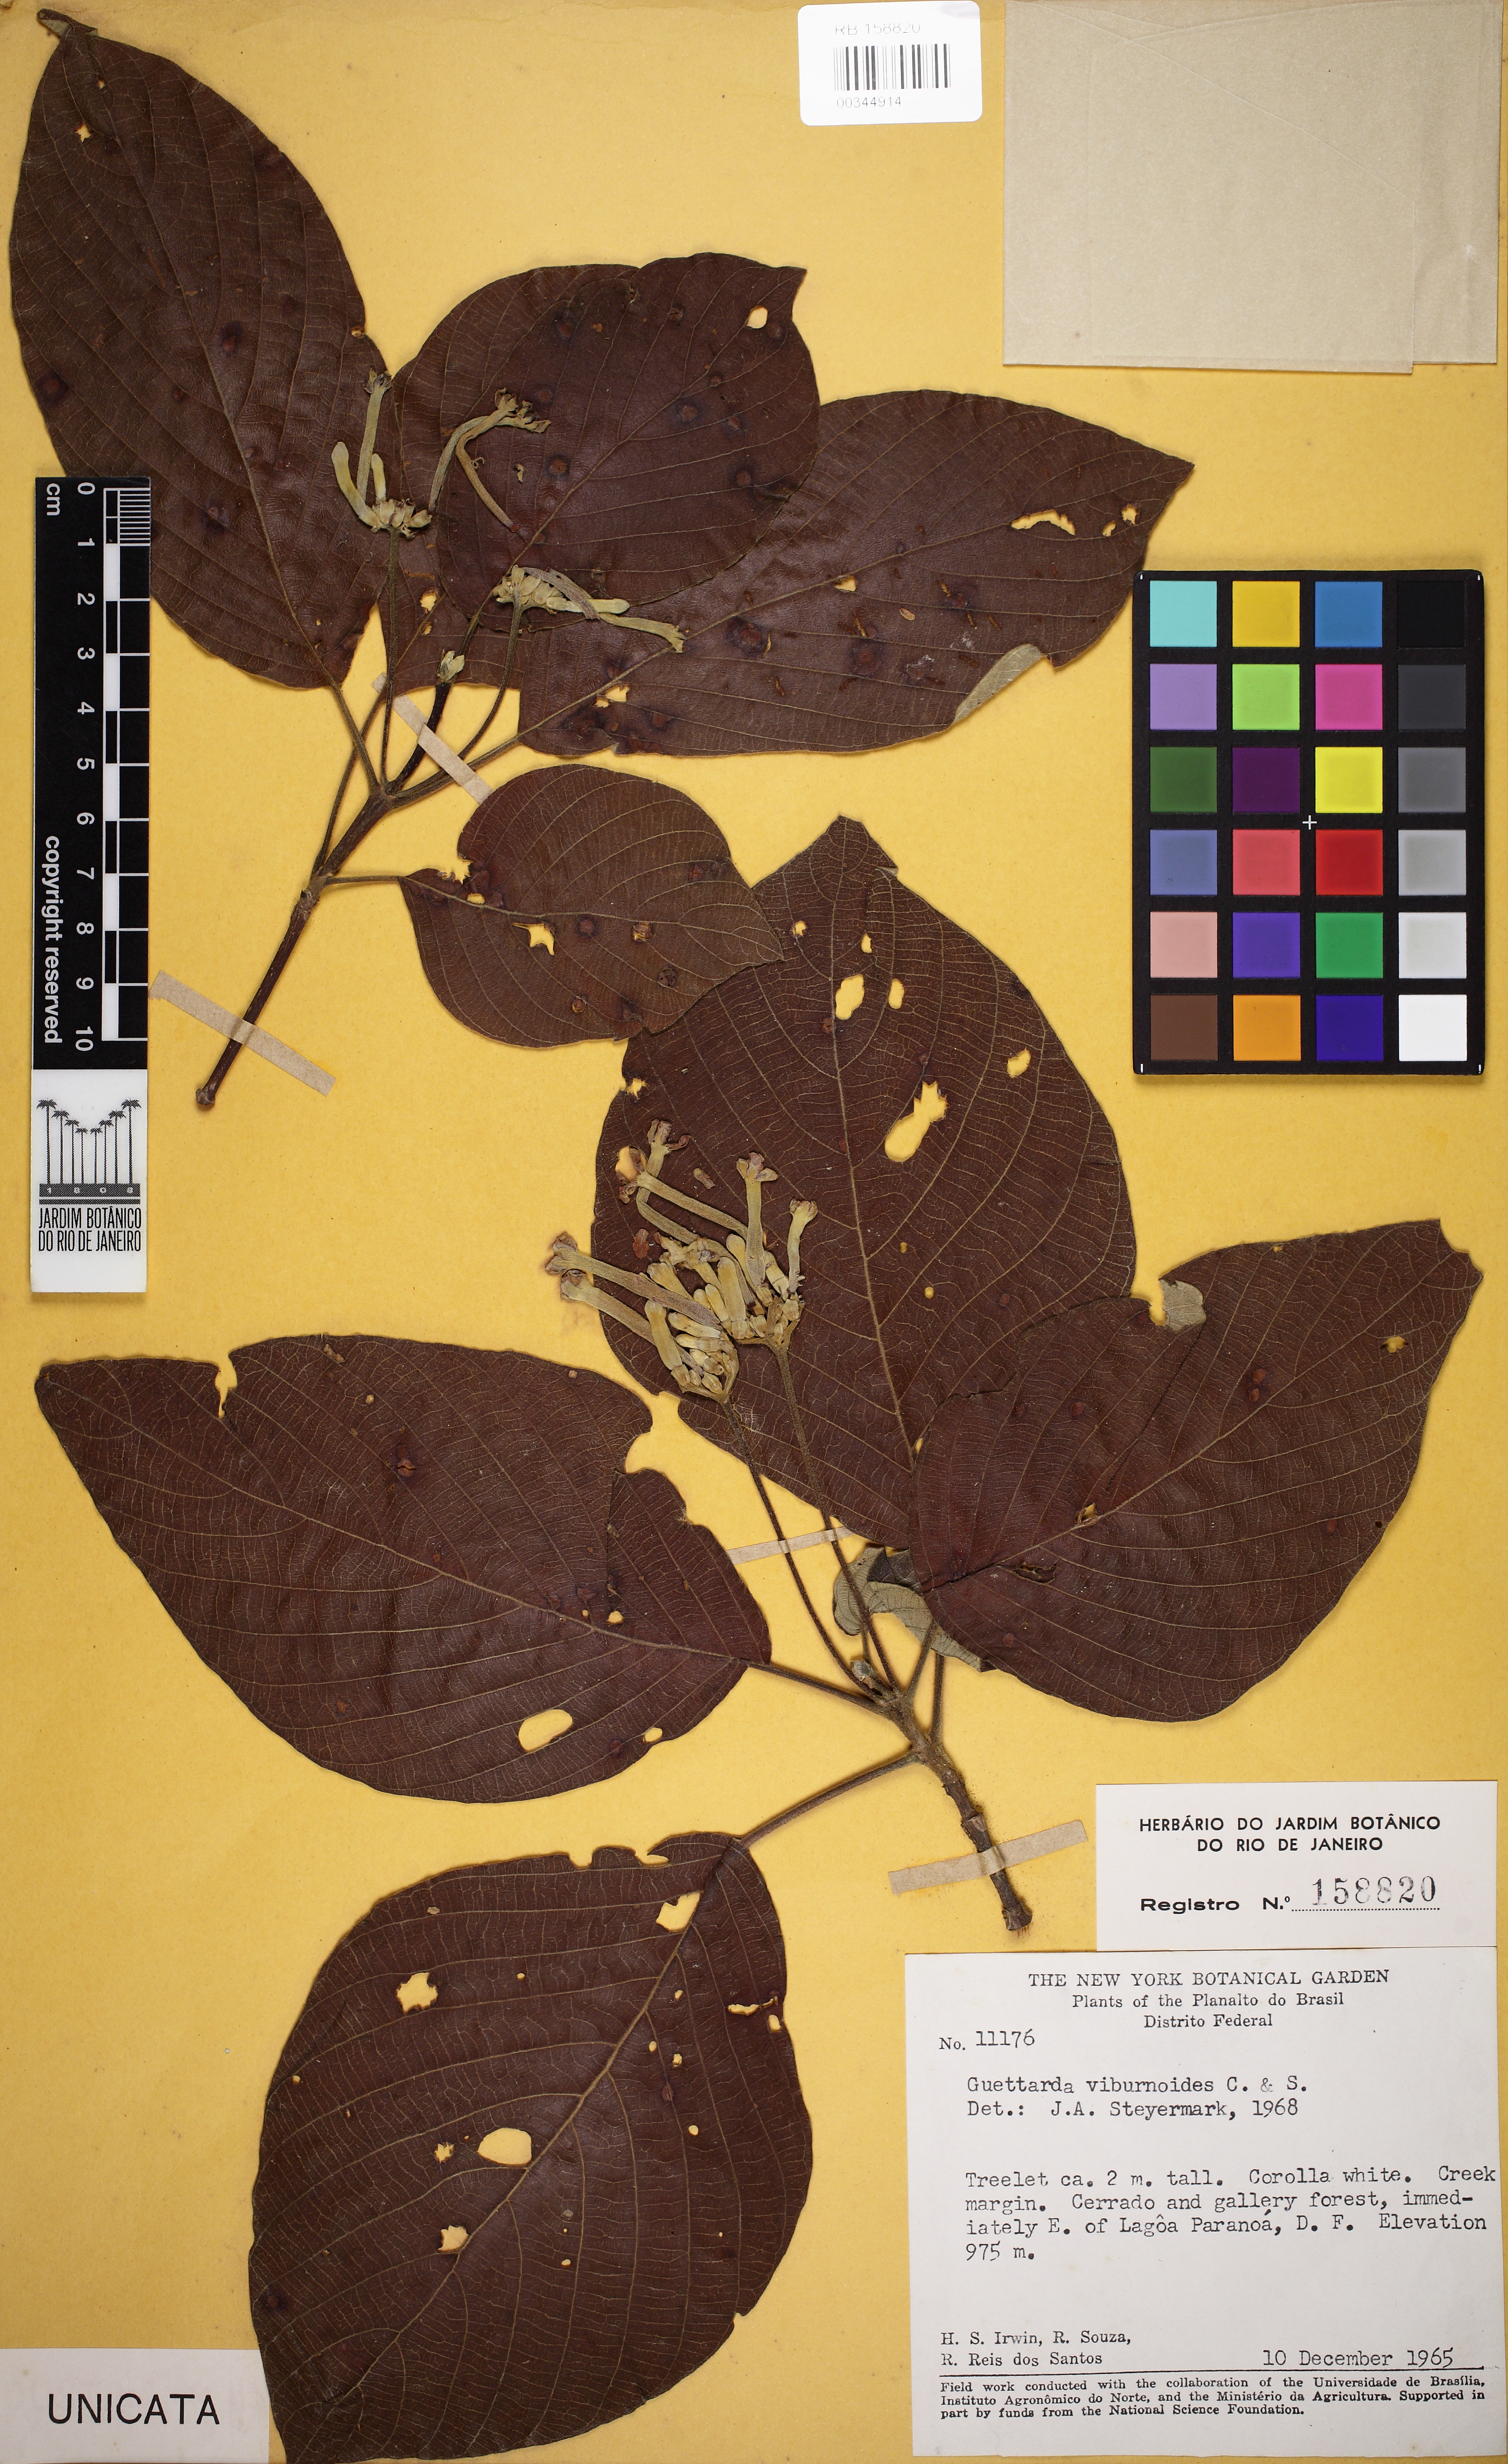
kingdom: Plantae
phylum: Tracheophyta
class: Magnoliopsida
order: Gentianales
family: Rubiaceae
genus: Guettarda
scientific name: Guettarda viburnoides
